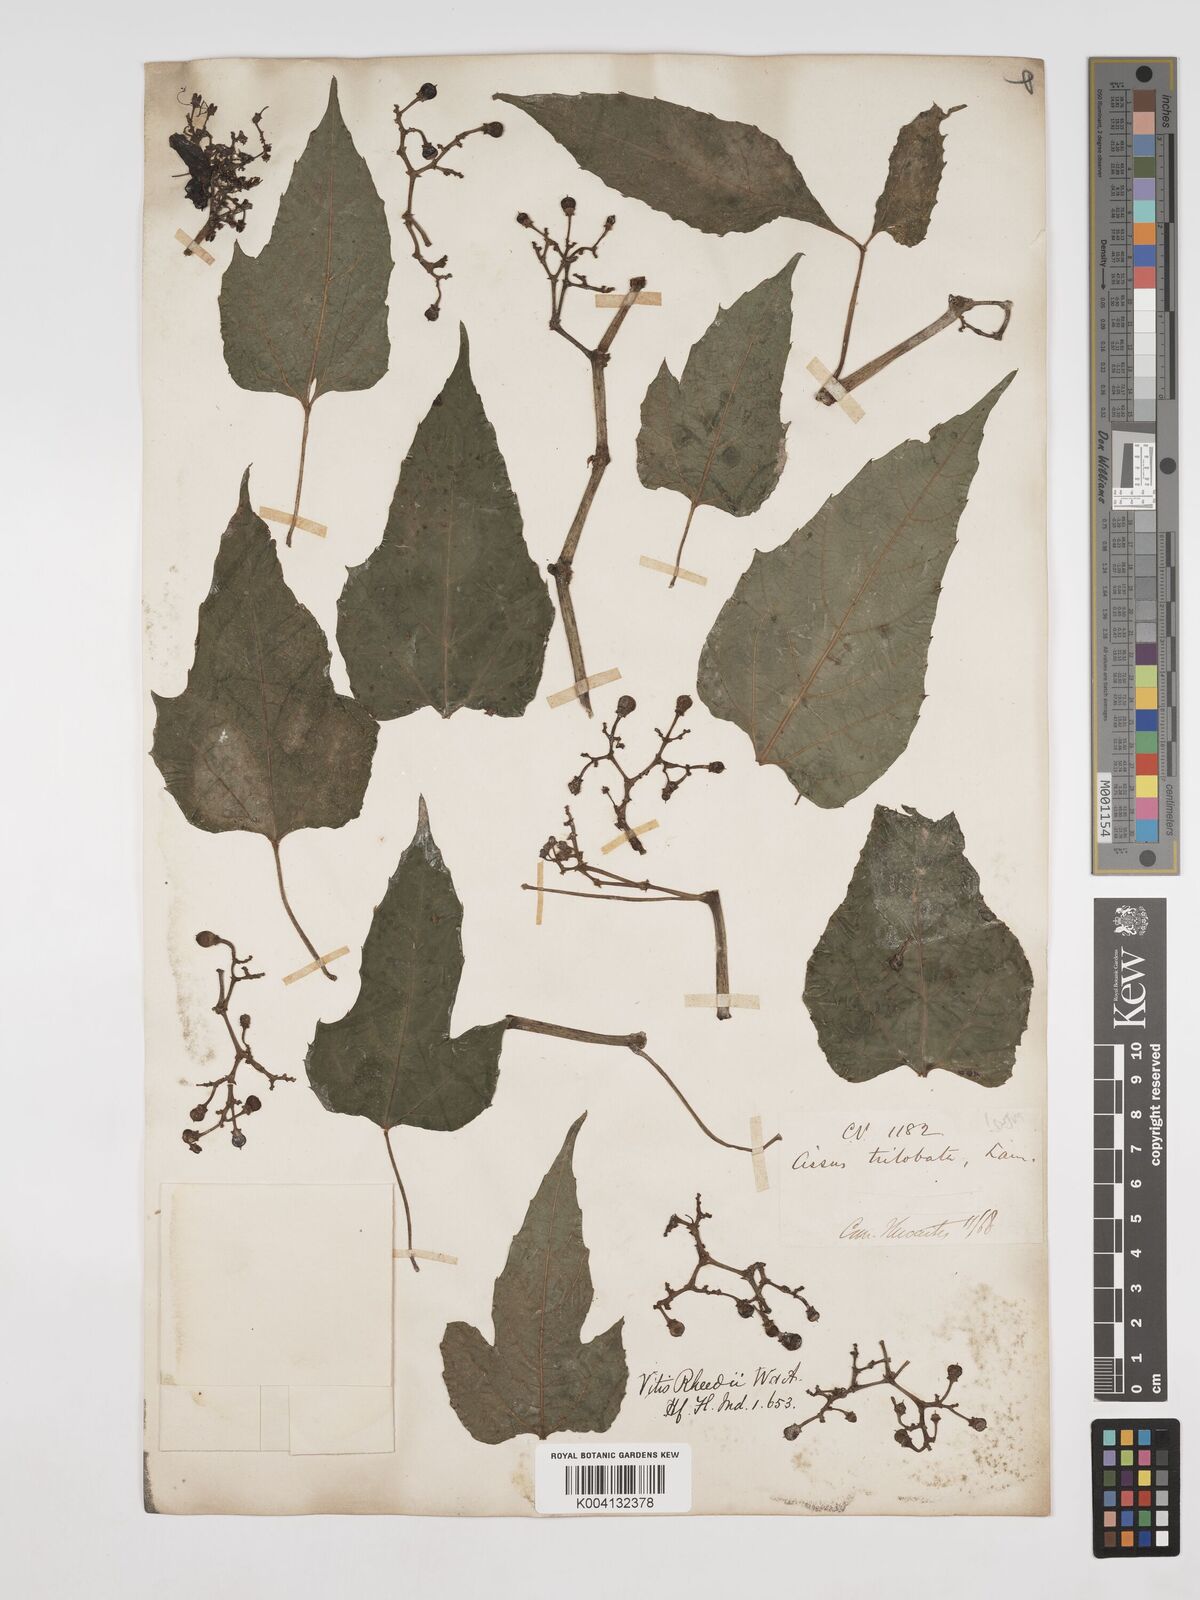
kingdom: Plantae
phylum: Tracheophyta
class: Magnoliopsida
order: Vitales
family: Vitaceae
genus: Cissus
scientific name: Cissus trilobata
